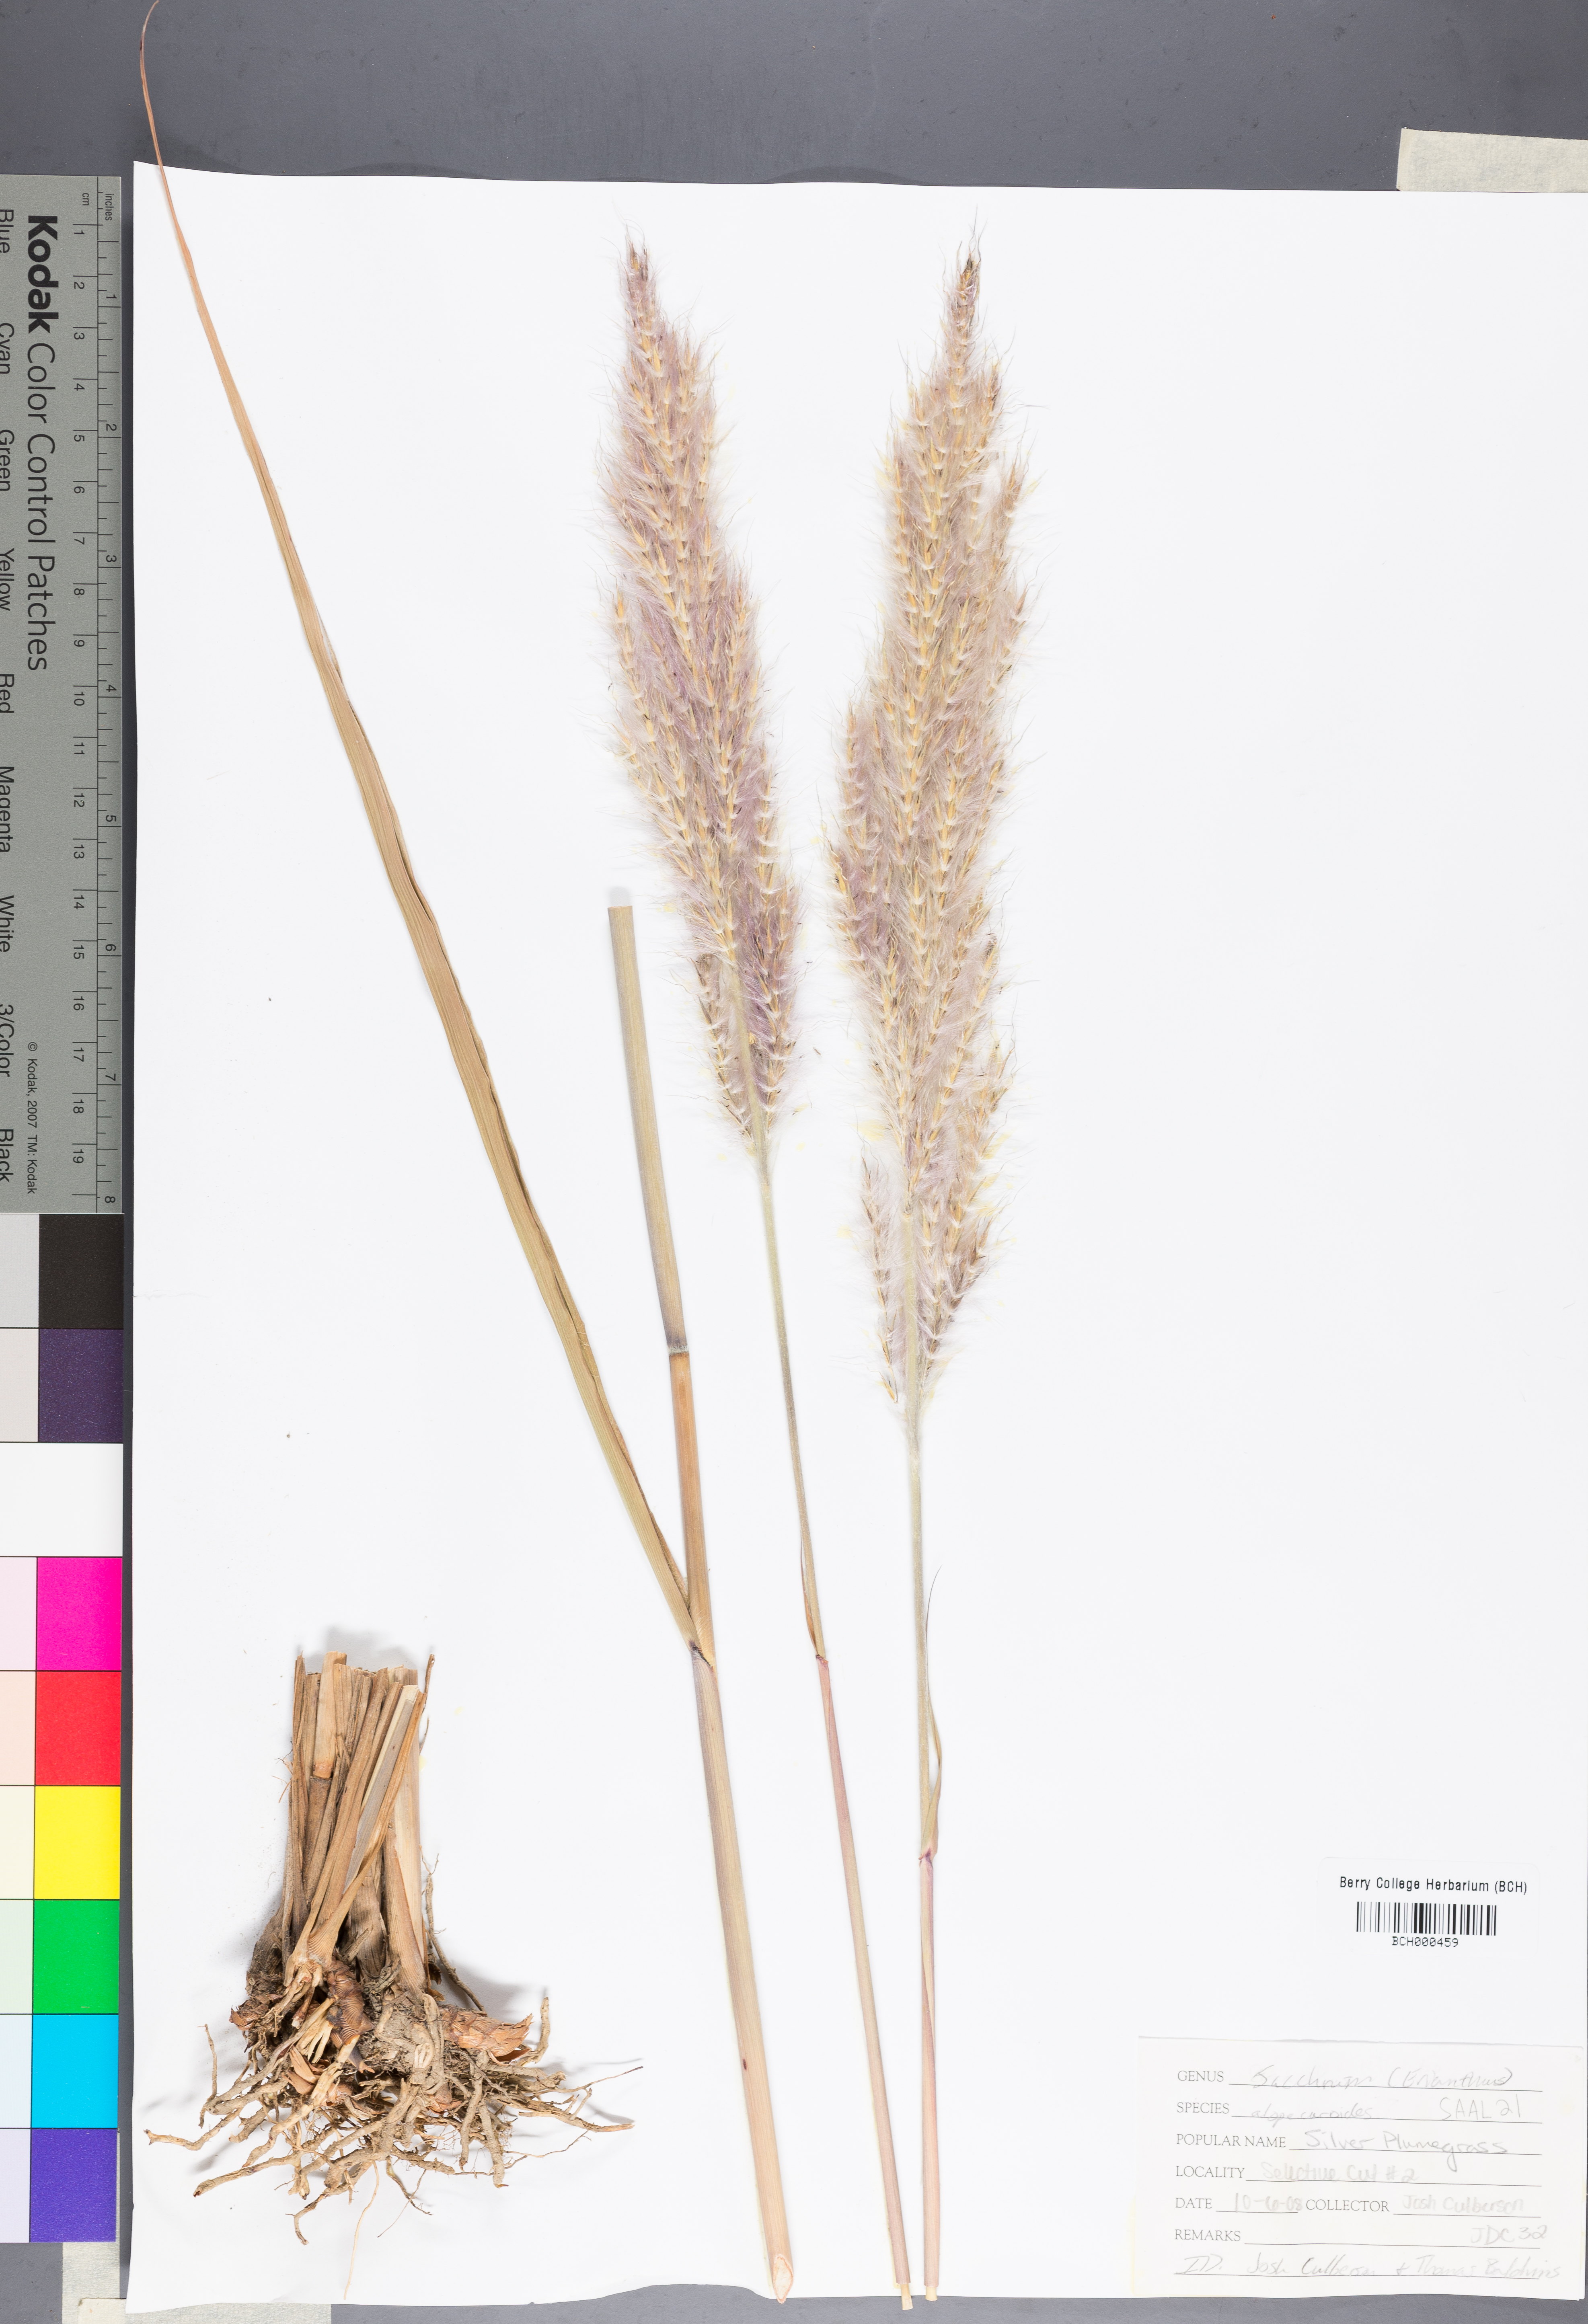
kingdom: Plantae
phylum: Tracheophyta
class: Liliopsida
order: Poales
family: Poaceae
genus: Erianthus
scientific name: Erianthus alopecuroides
